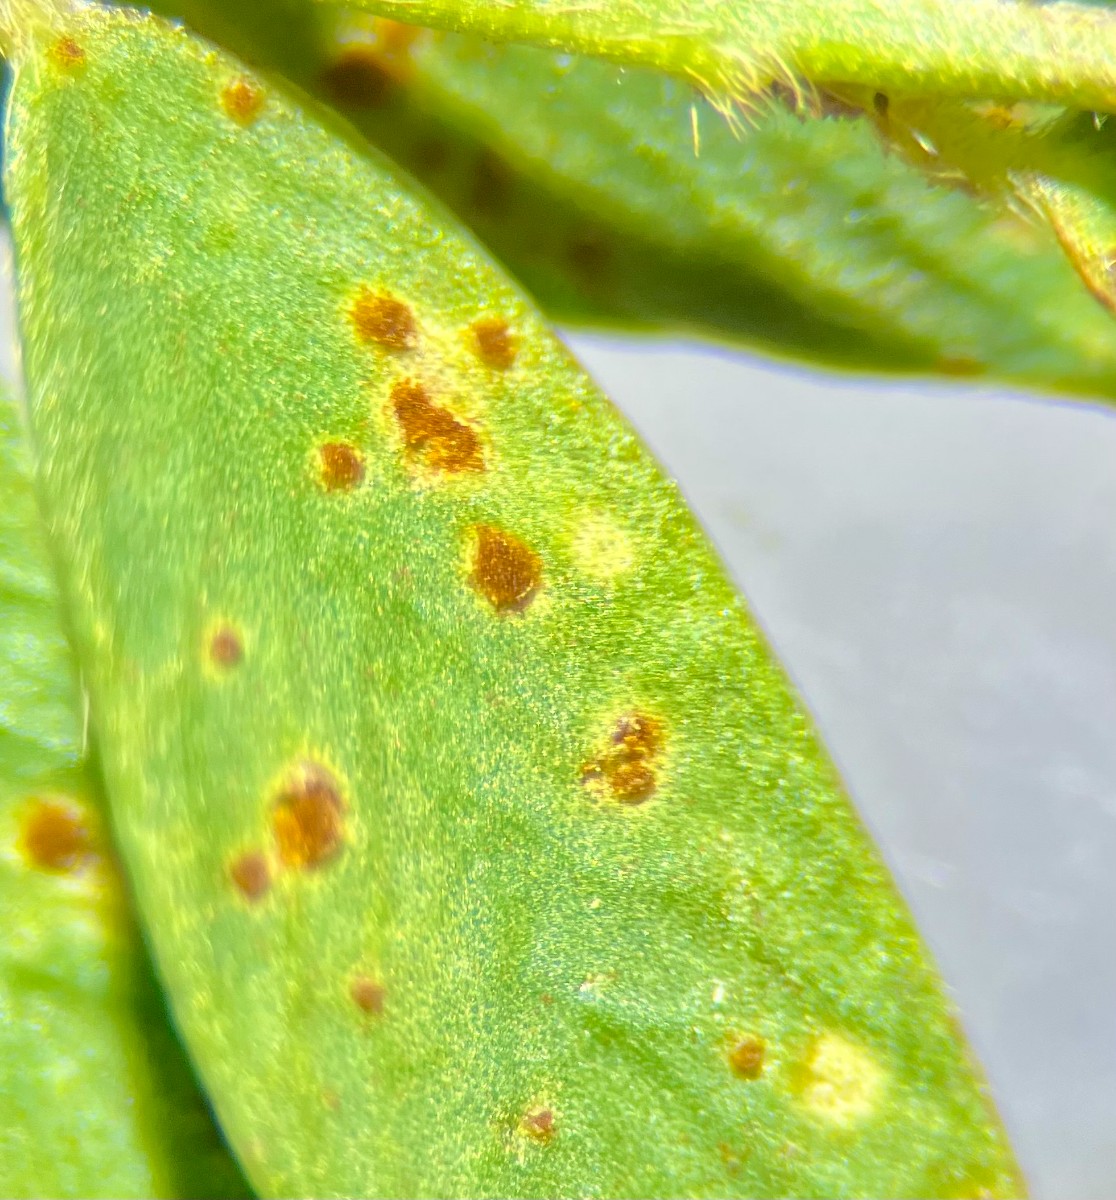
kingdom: Fungi
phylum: Basidiomycota
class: Pucciniomycetes
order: Pucciniales
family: Pucciniaceae
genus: Uromyces
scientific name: Uromyces pisi-sativi
